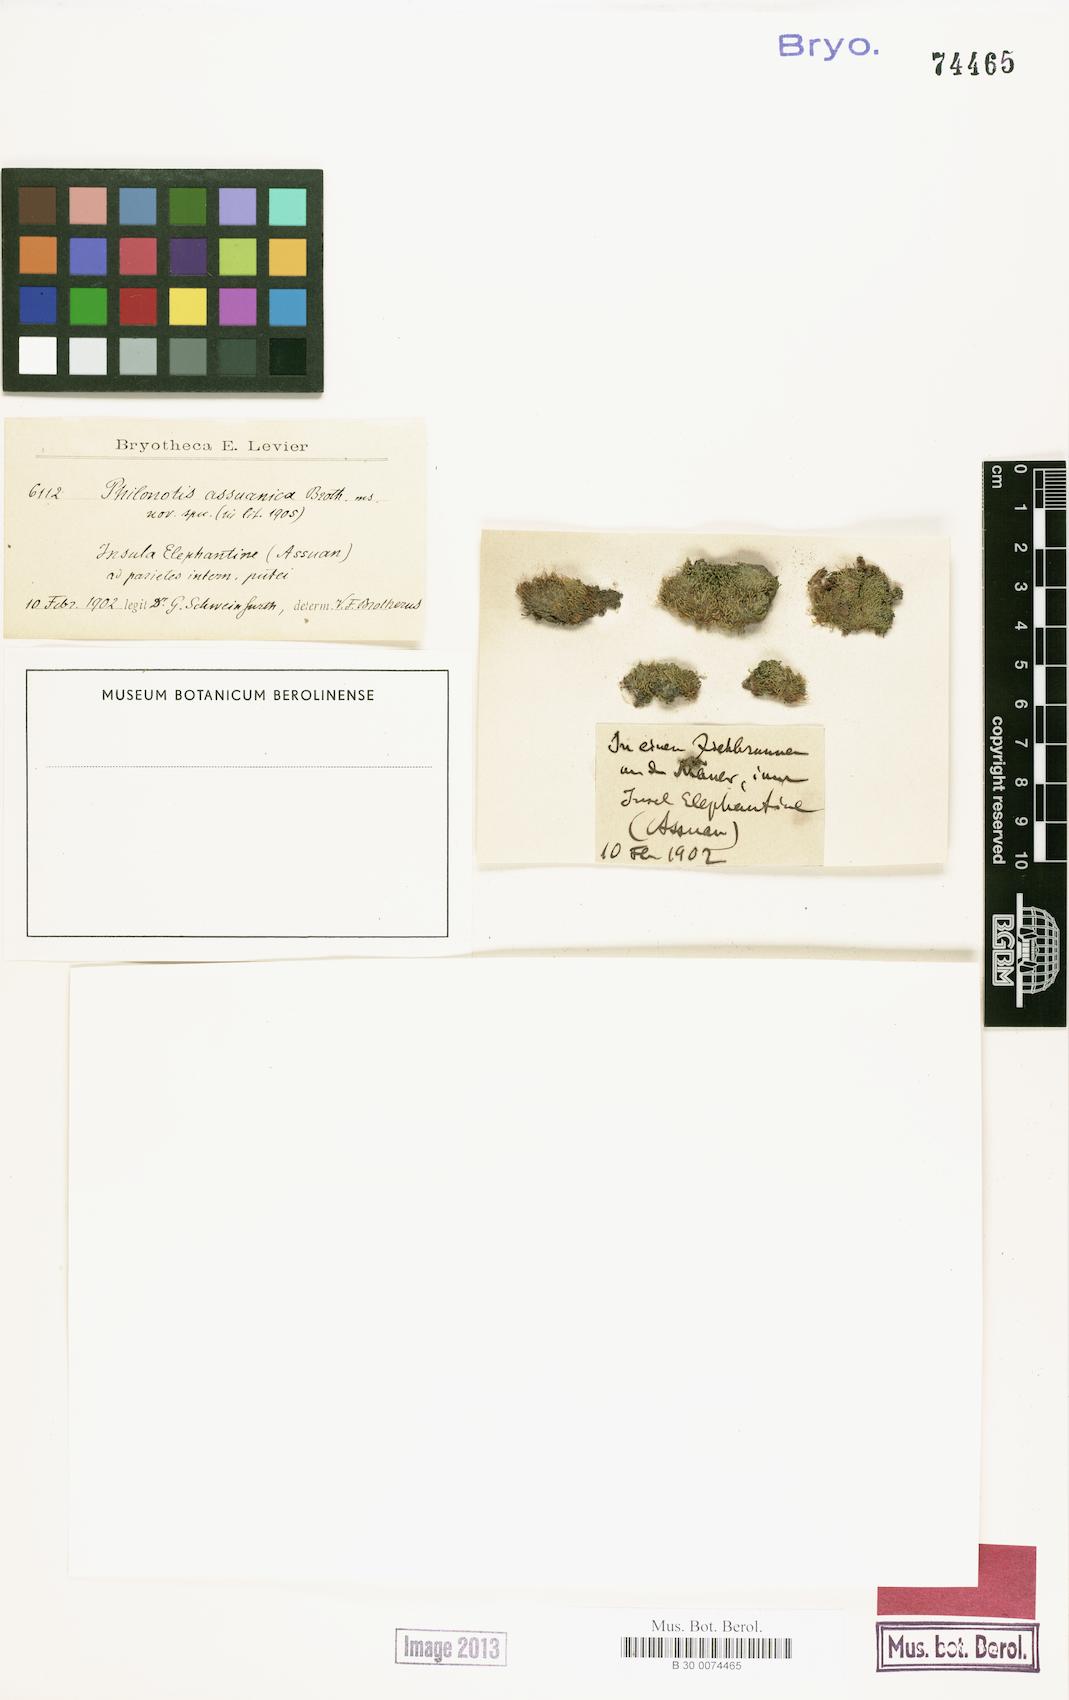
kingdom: Plantae
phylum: Bryophyta
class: Bryopsida
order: Bartramiales
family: Bartramiaceae
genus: Philonotis
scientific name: Philonotis
